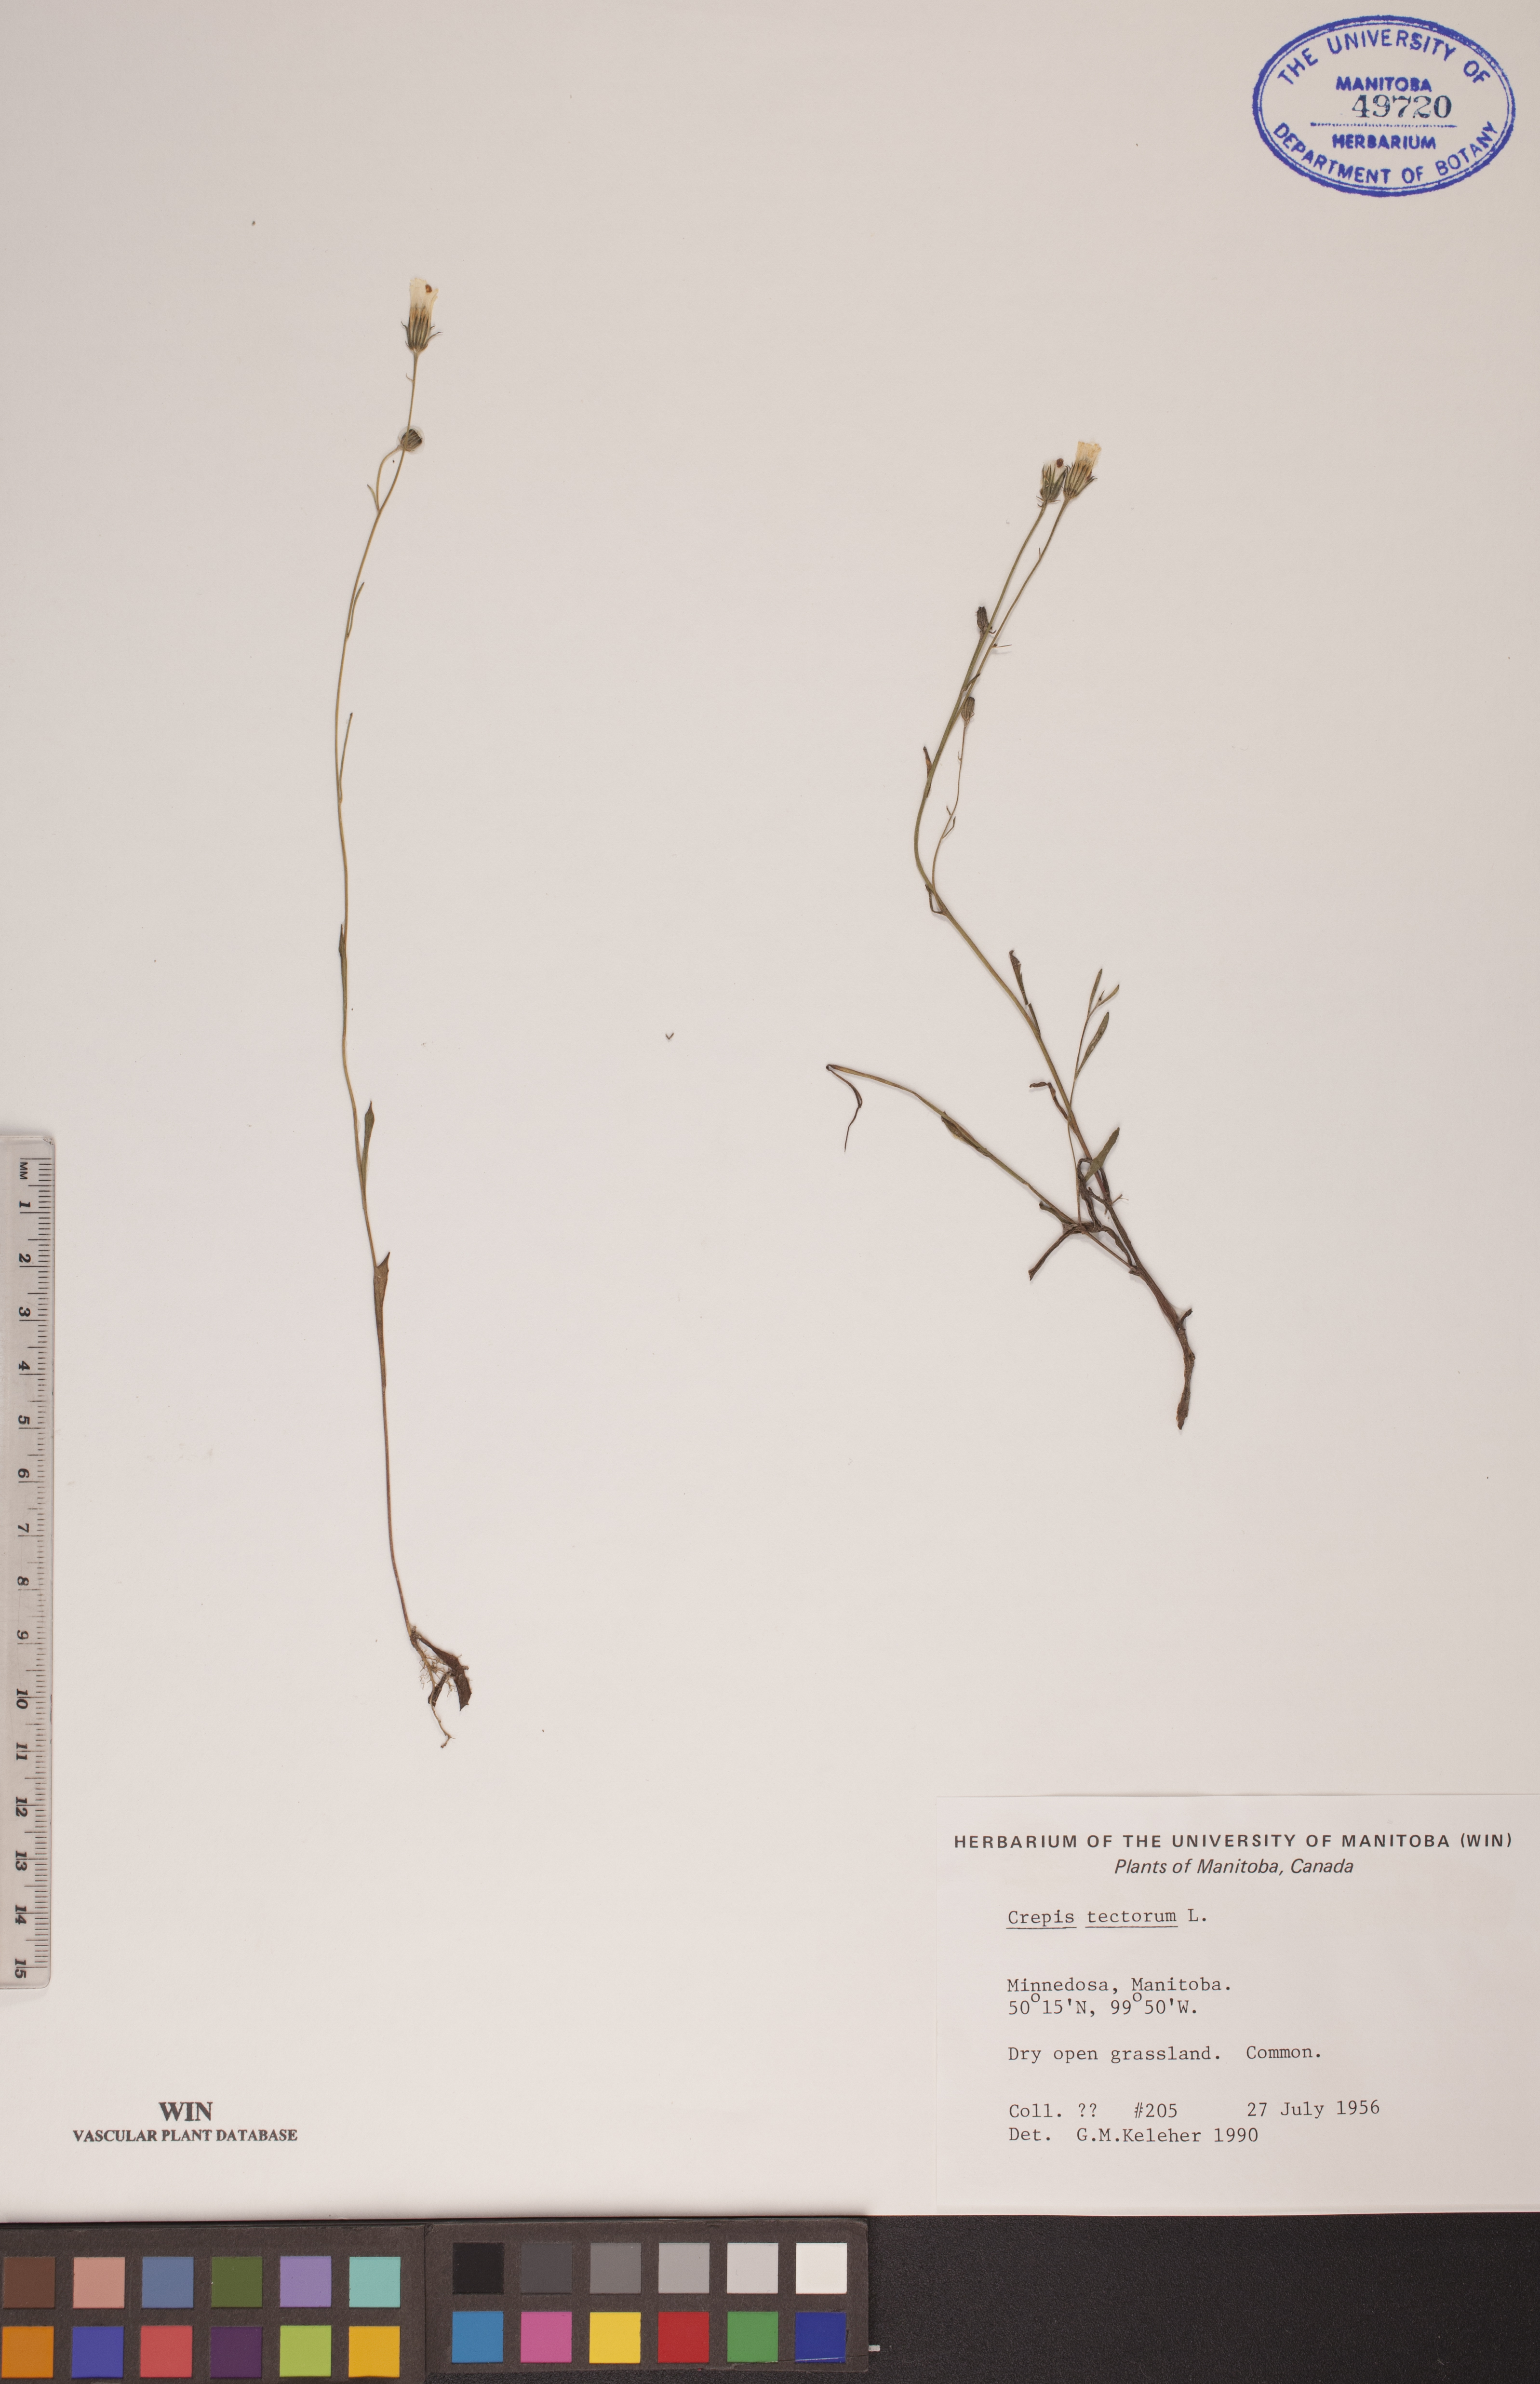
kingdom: Plantae
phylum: Tracheophyta
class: Magnoliopsida
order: Asterales
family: Asteraceae
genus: Crepis
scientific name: Crepis tectorum
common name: Narrow-leaved hawk's-beard
